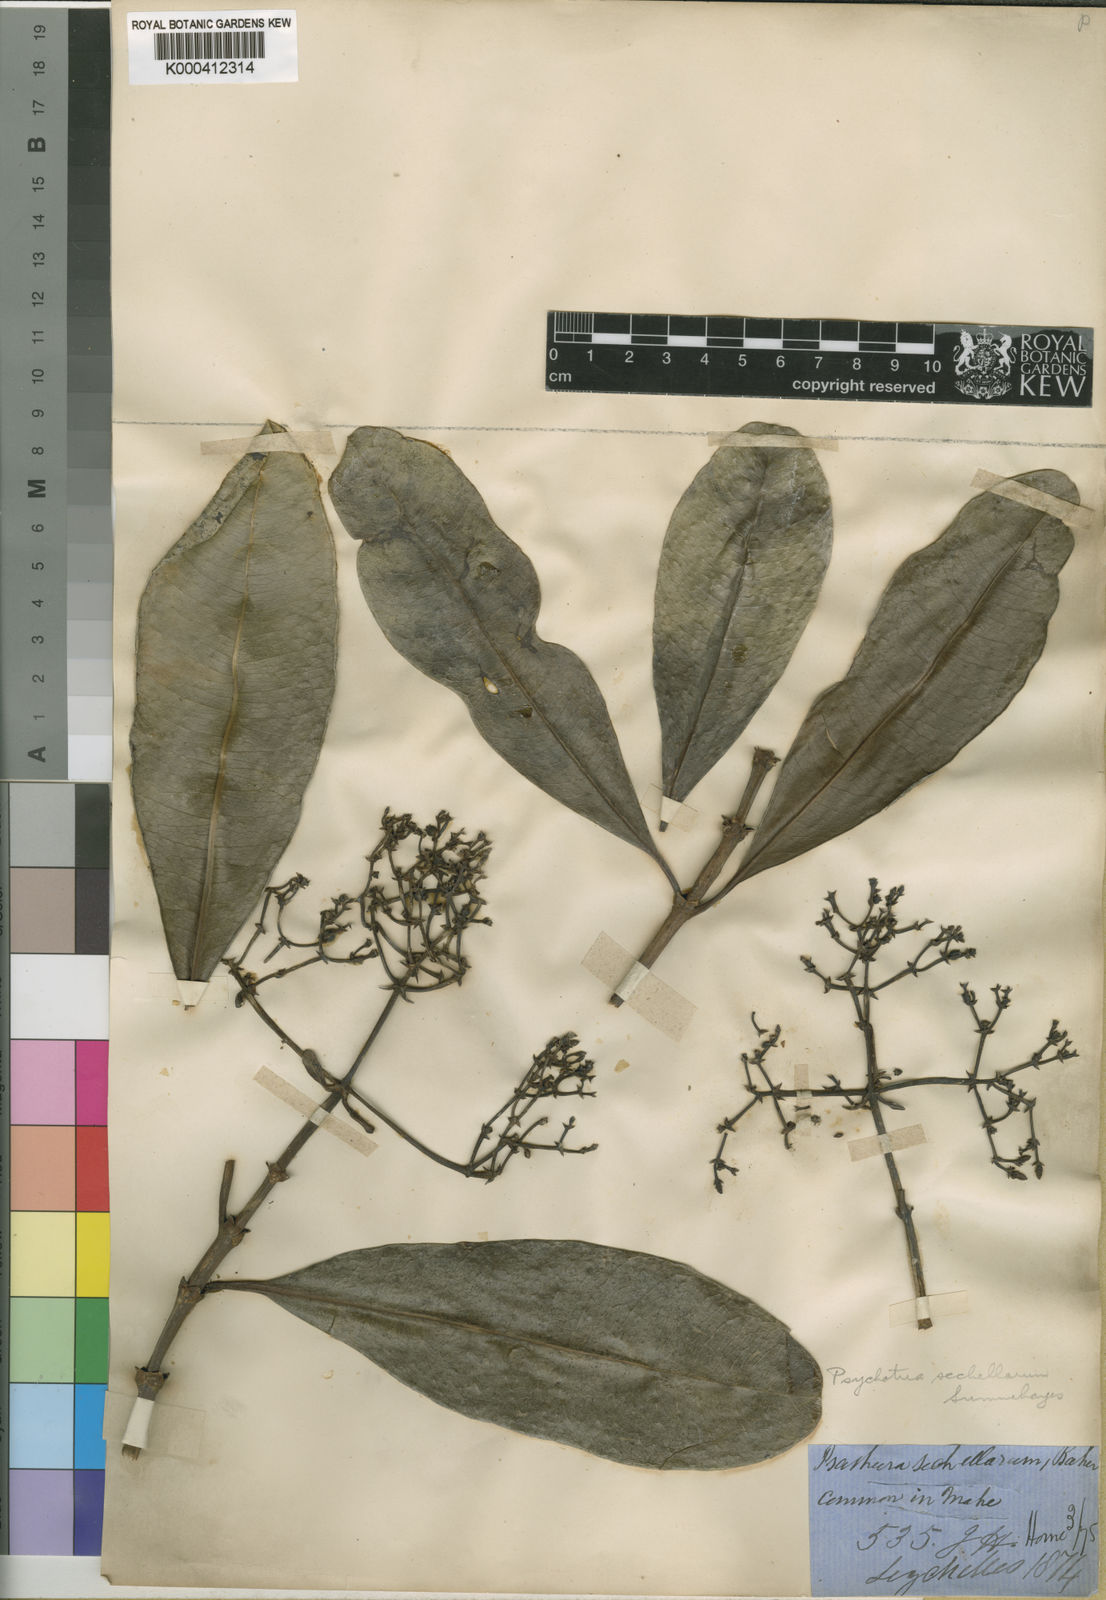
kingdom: Plantae
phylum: Tracheophyta
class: Magnoliopsida
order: Gentianales
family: Rubiaceae
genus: Seychellea
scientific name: Seychellea sechellarum
